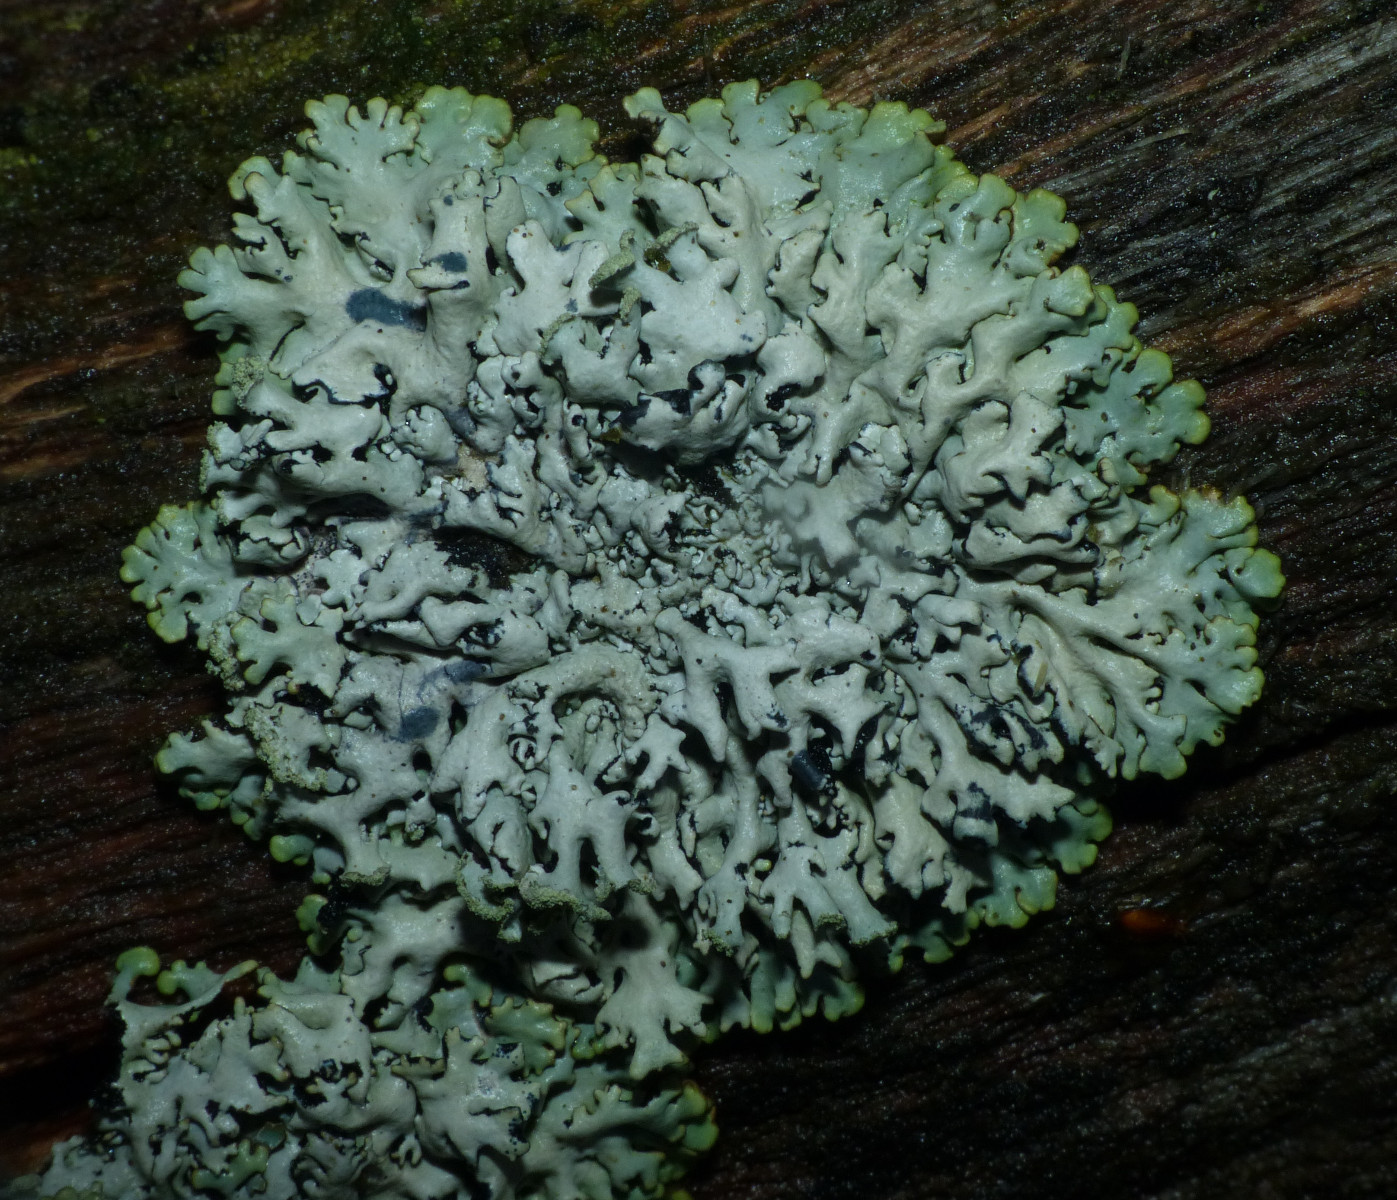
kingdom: Fungi
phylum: Ascomycota
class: Lecanoromycetes
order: Lecanorales
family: Parmeliaceae
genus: Hypogymnia
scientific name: Hypogymnia physodes
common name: almindelig kvistlav
